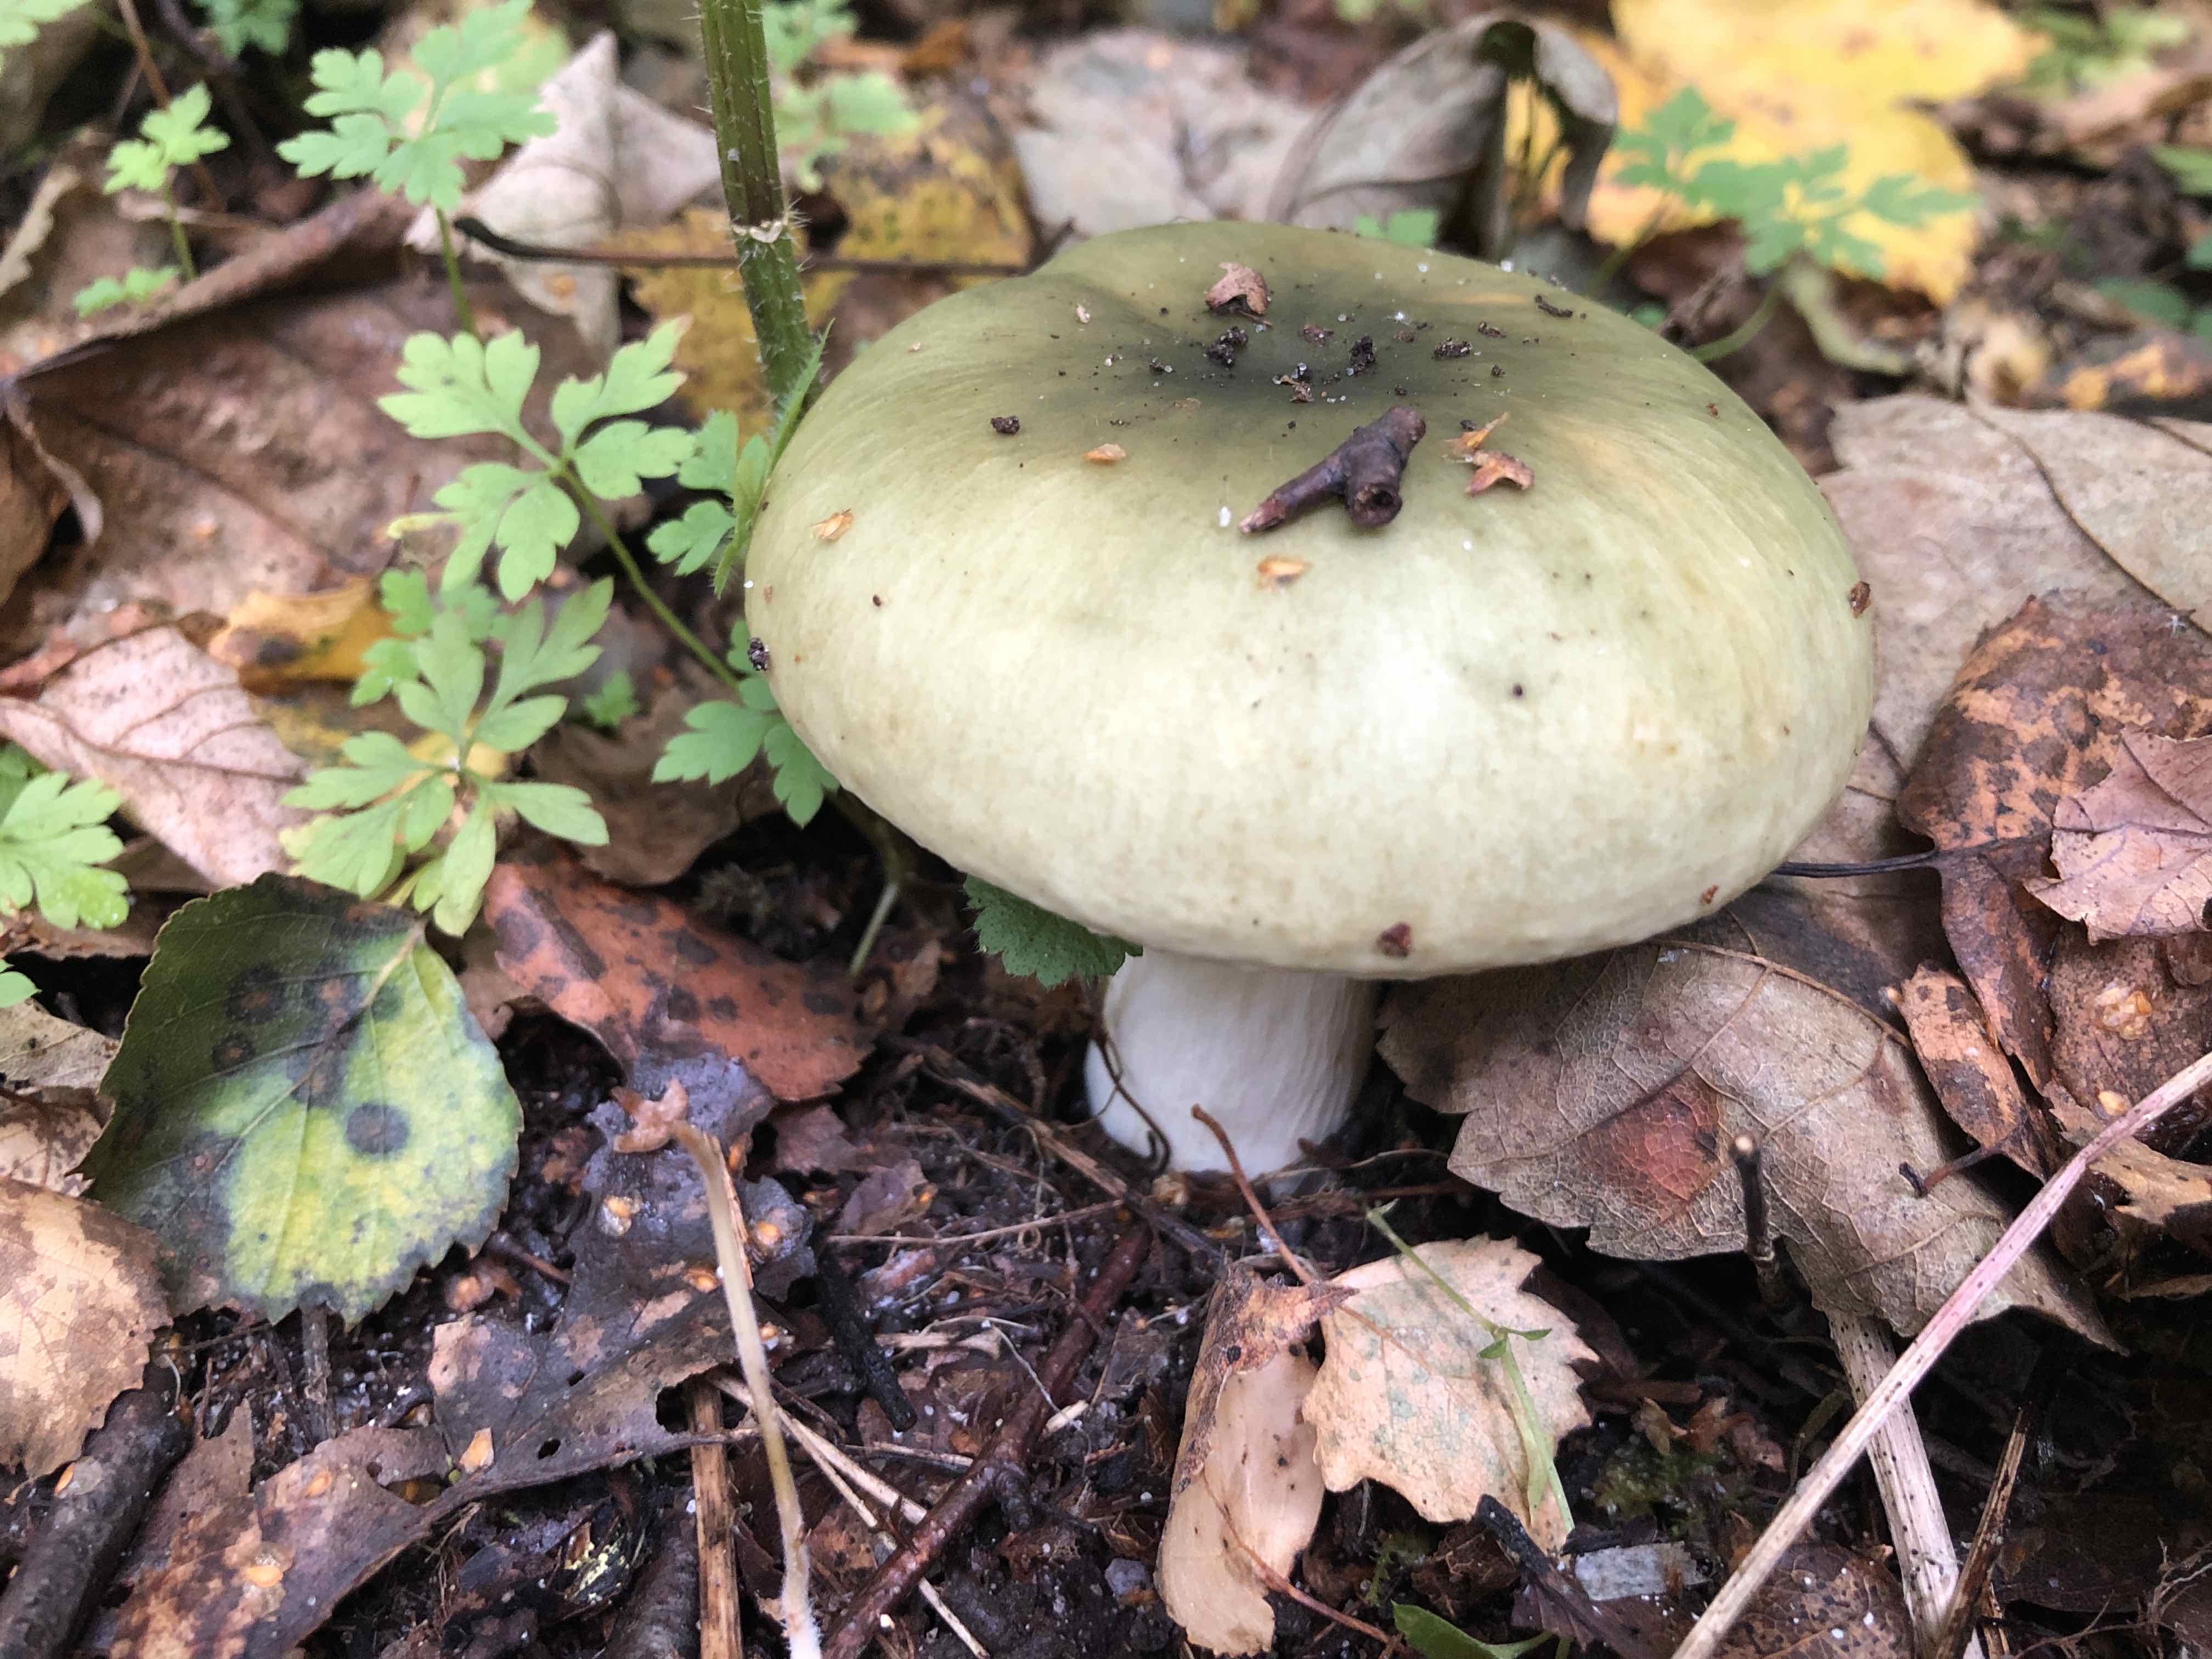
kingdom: Fungi
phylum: Basidiomycota
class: Agaricomycetes
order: Russulales
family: Russulaceae
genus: Russula
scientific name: Russula aeruginea
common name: græsgrøn skørhat
